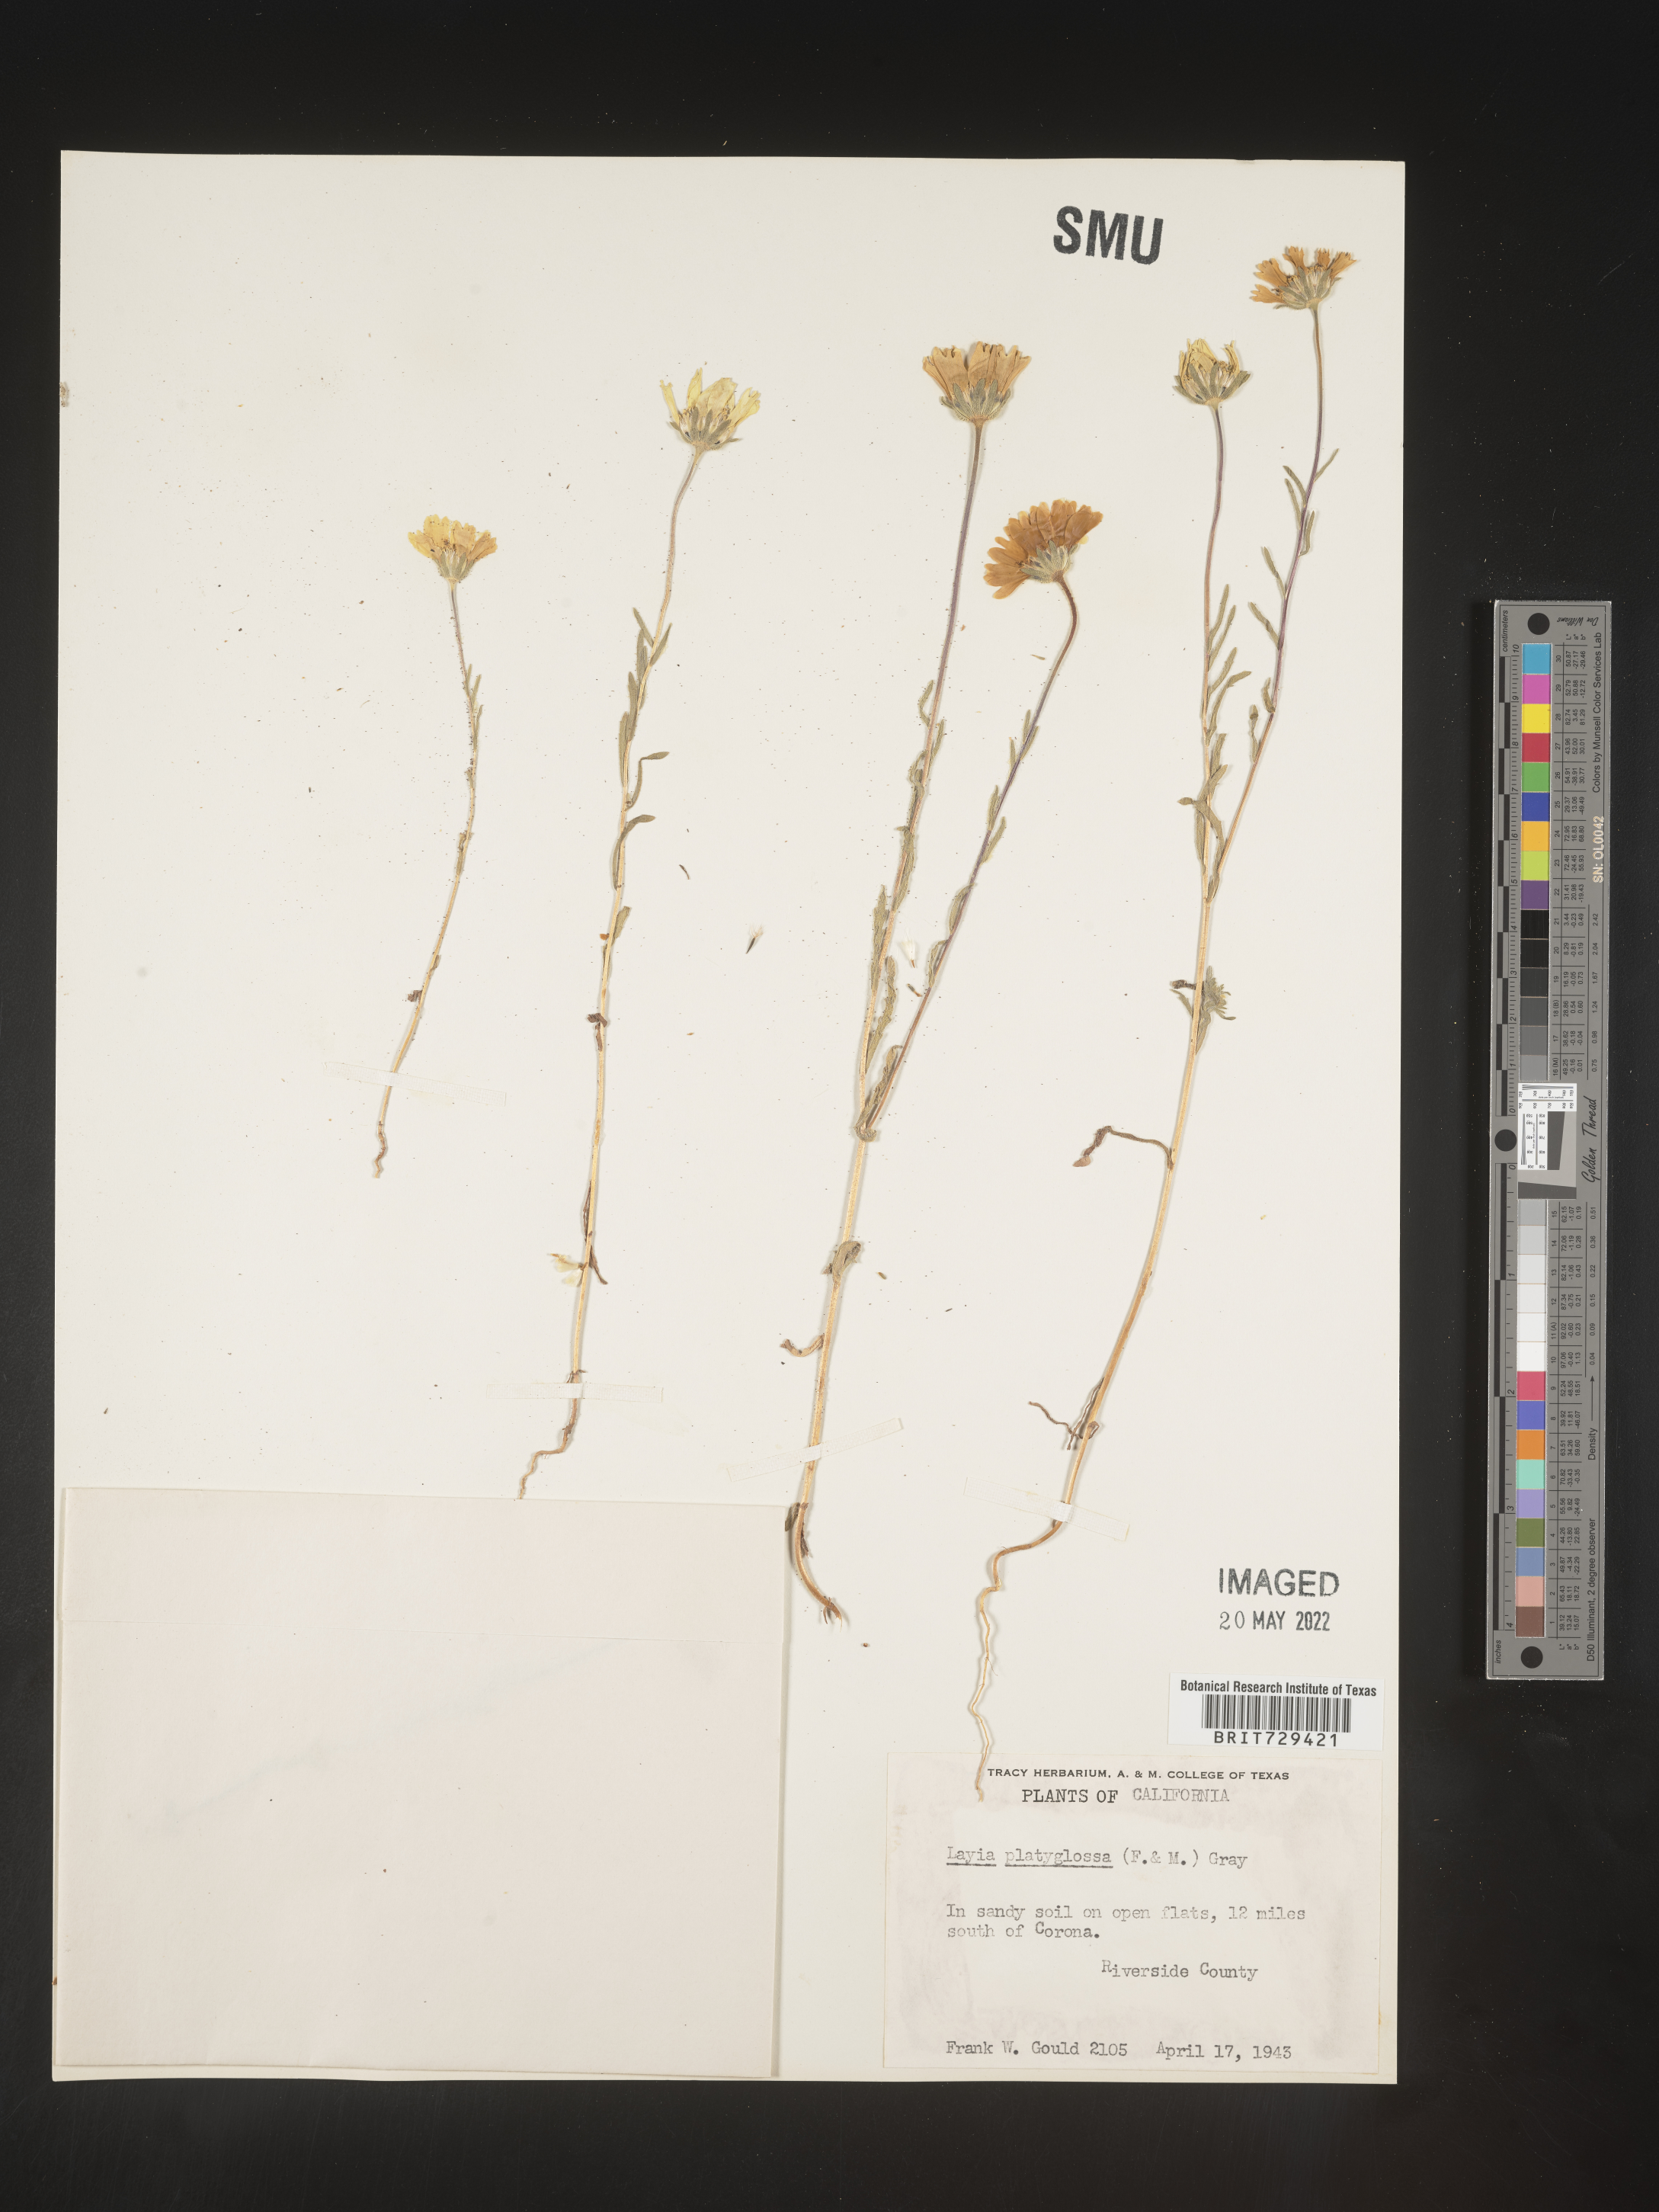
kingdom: Plantae
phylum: Tracheophyta
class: Magnoliopsida
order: Asterales
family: Asteraceae
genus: Layia
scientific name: Layia
